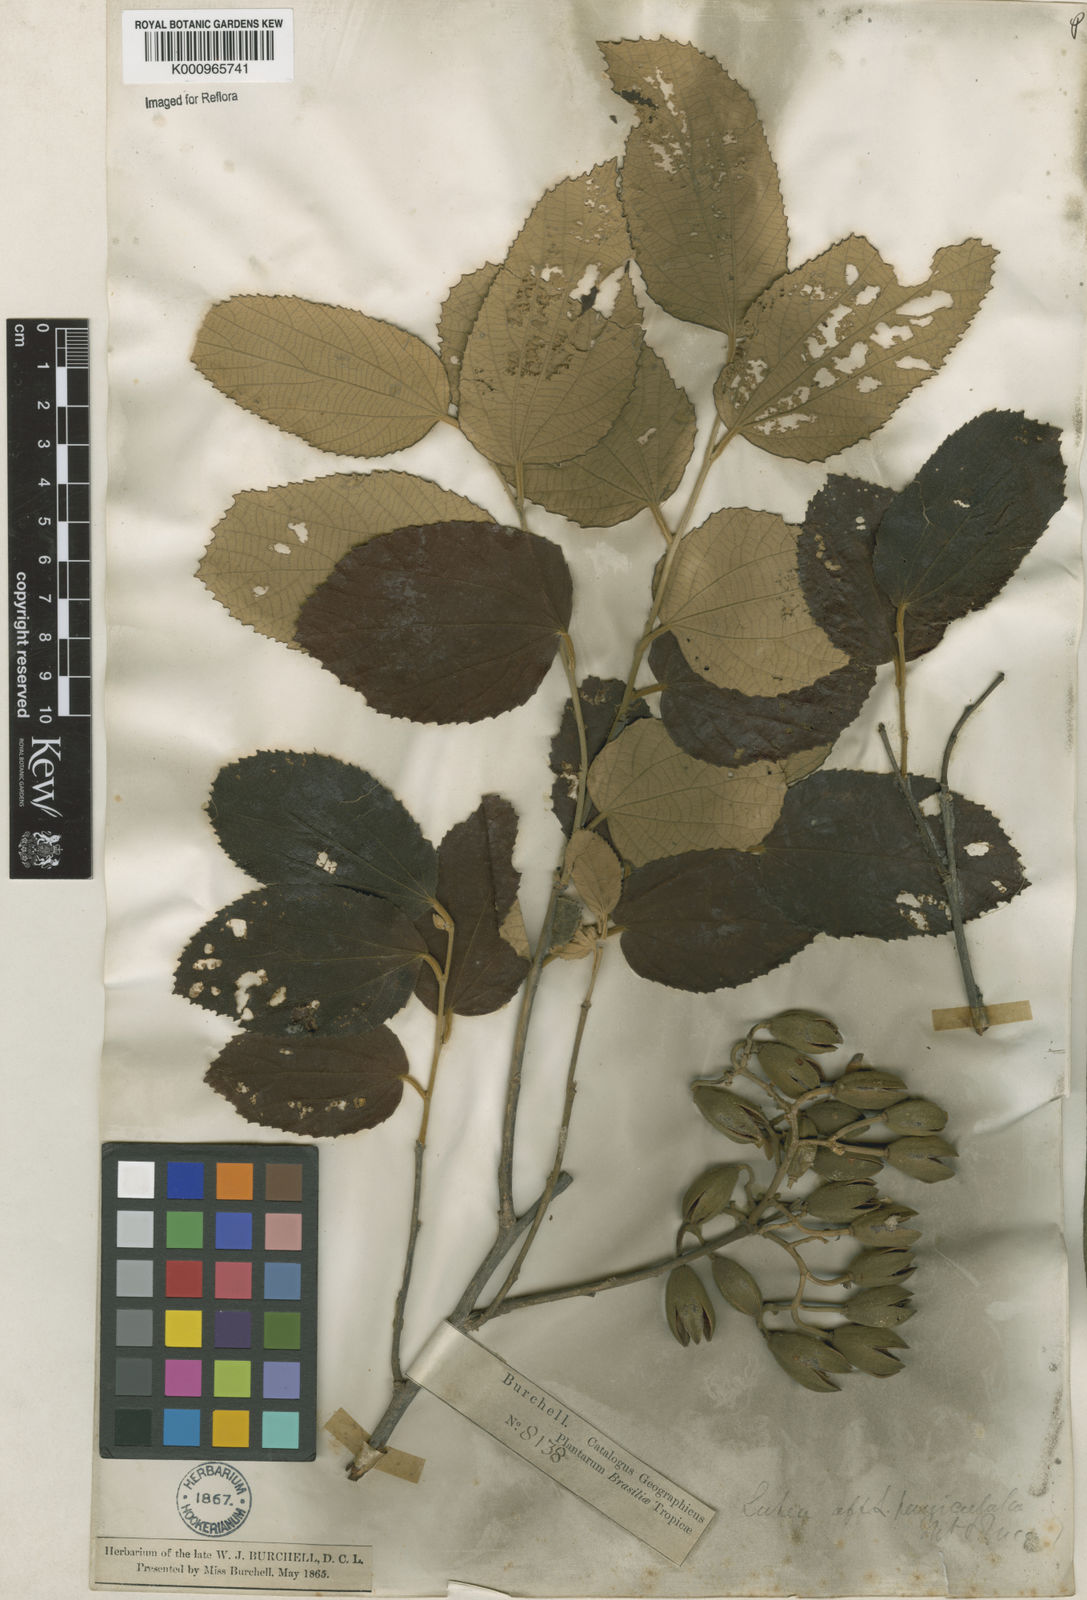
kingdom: Plantae
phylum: Tracheophyta
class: Magnoliopsida
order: Malvales
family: Malvaceae
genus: Luehea
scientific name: Luehea paniculata
